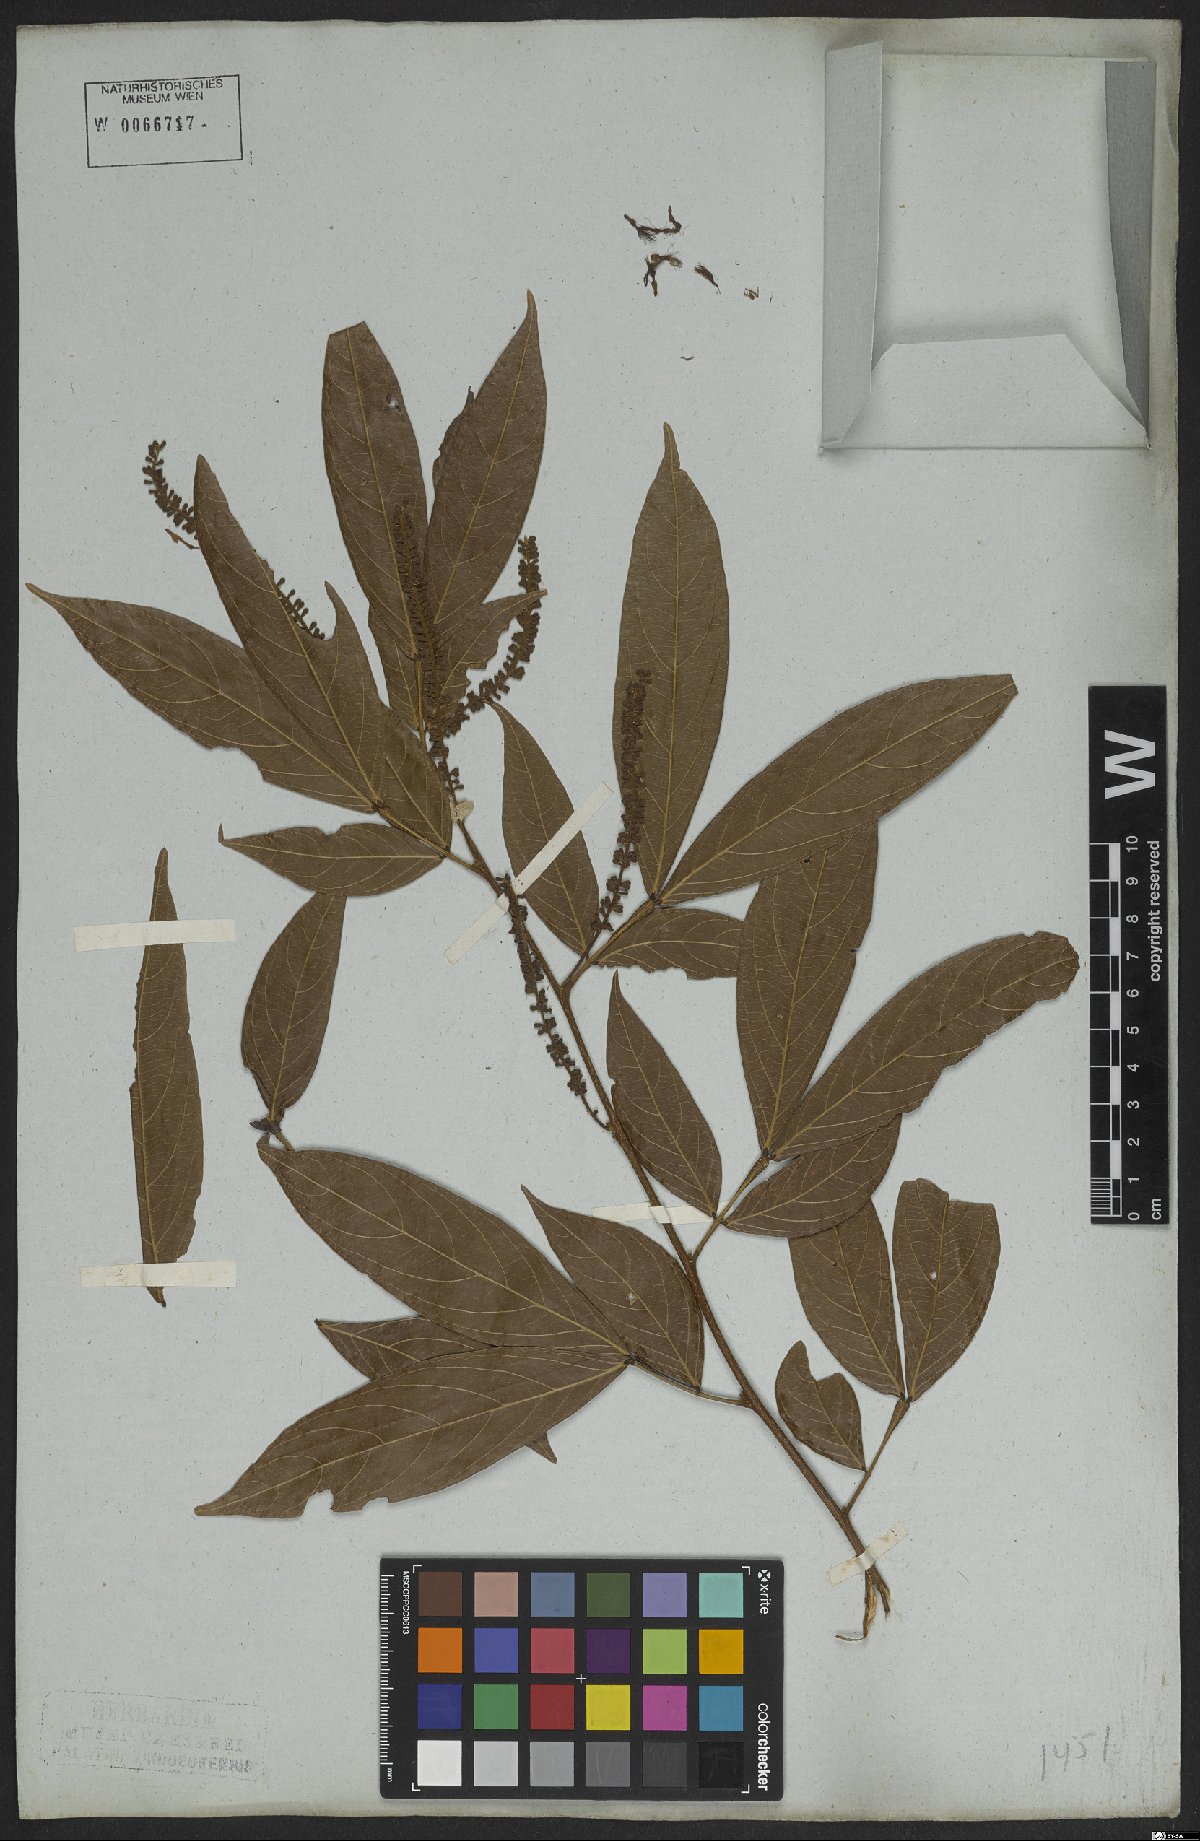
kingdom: Plantae
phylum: Tracheophyta
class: Magnoliopsida
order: Fabales
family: Fabaceae
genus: Inga
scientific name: Inga marginata
